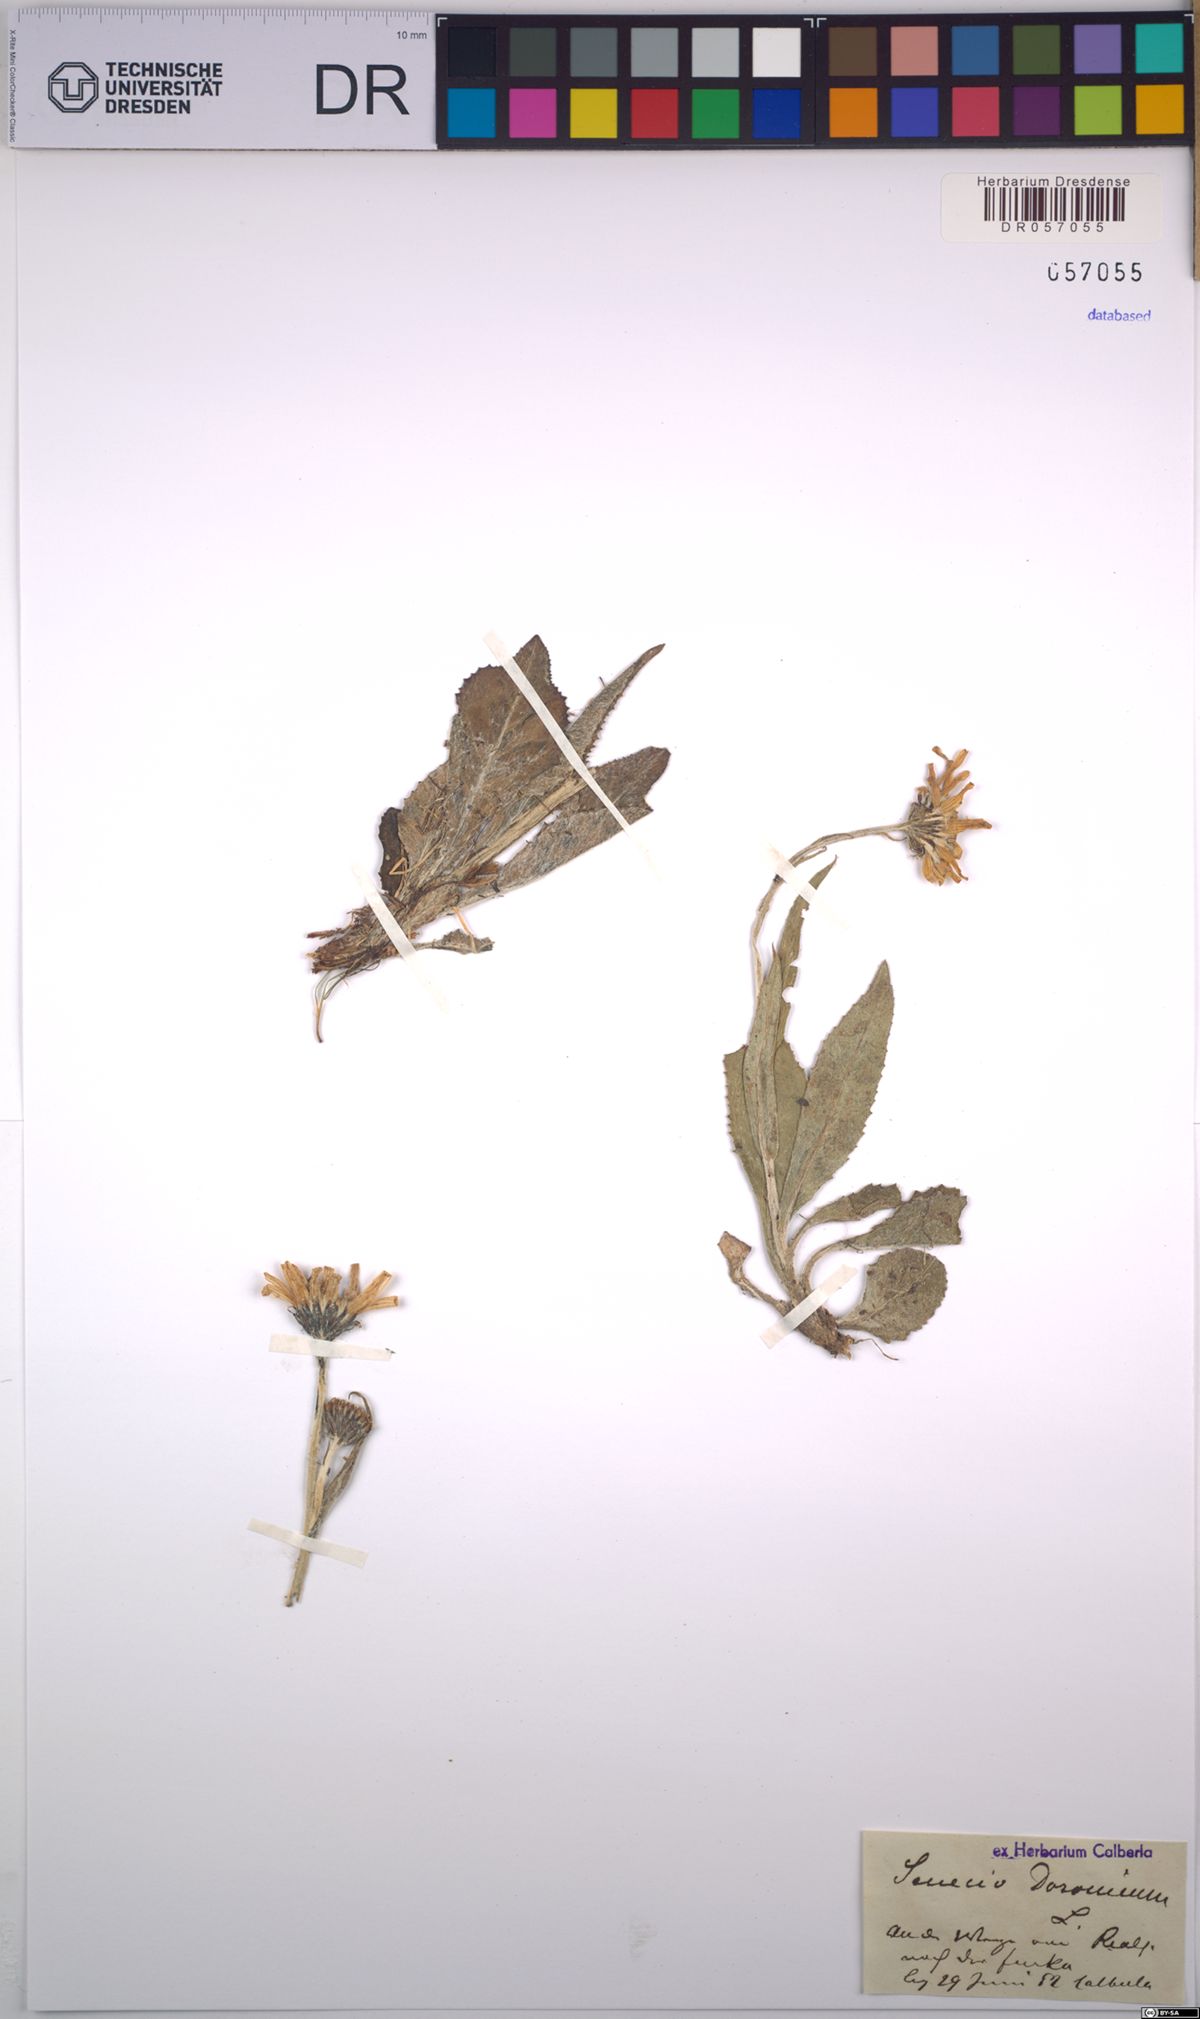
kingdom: Plantae
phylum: Tracheophyta
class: Magnoliopsida
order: Asterales
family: Asteraceae
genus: Senecio
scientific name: Senecio doronicum
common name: Chamois ragwort
